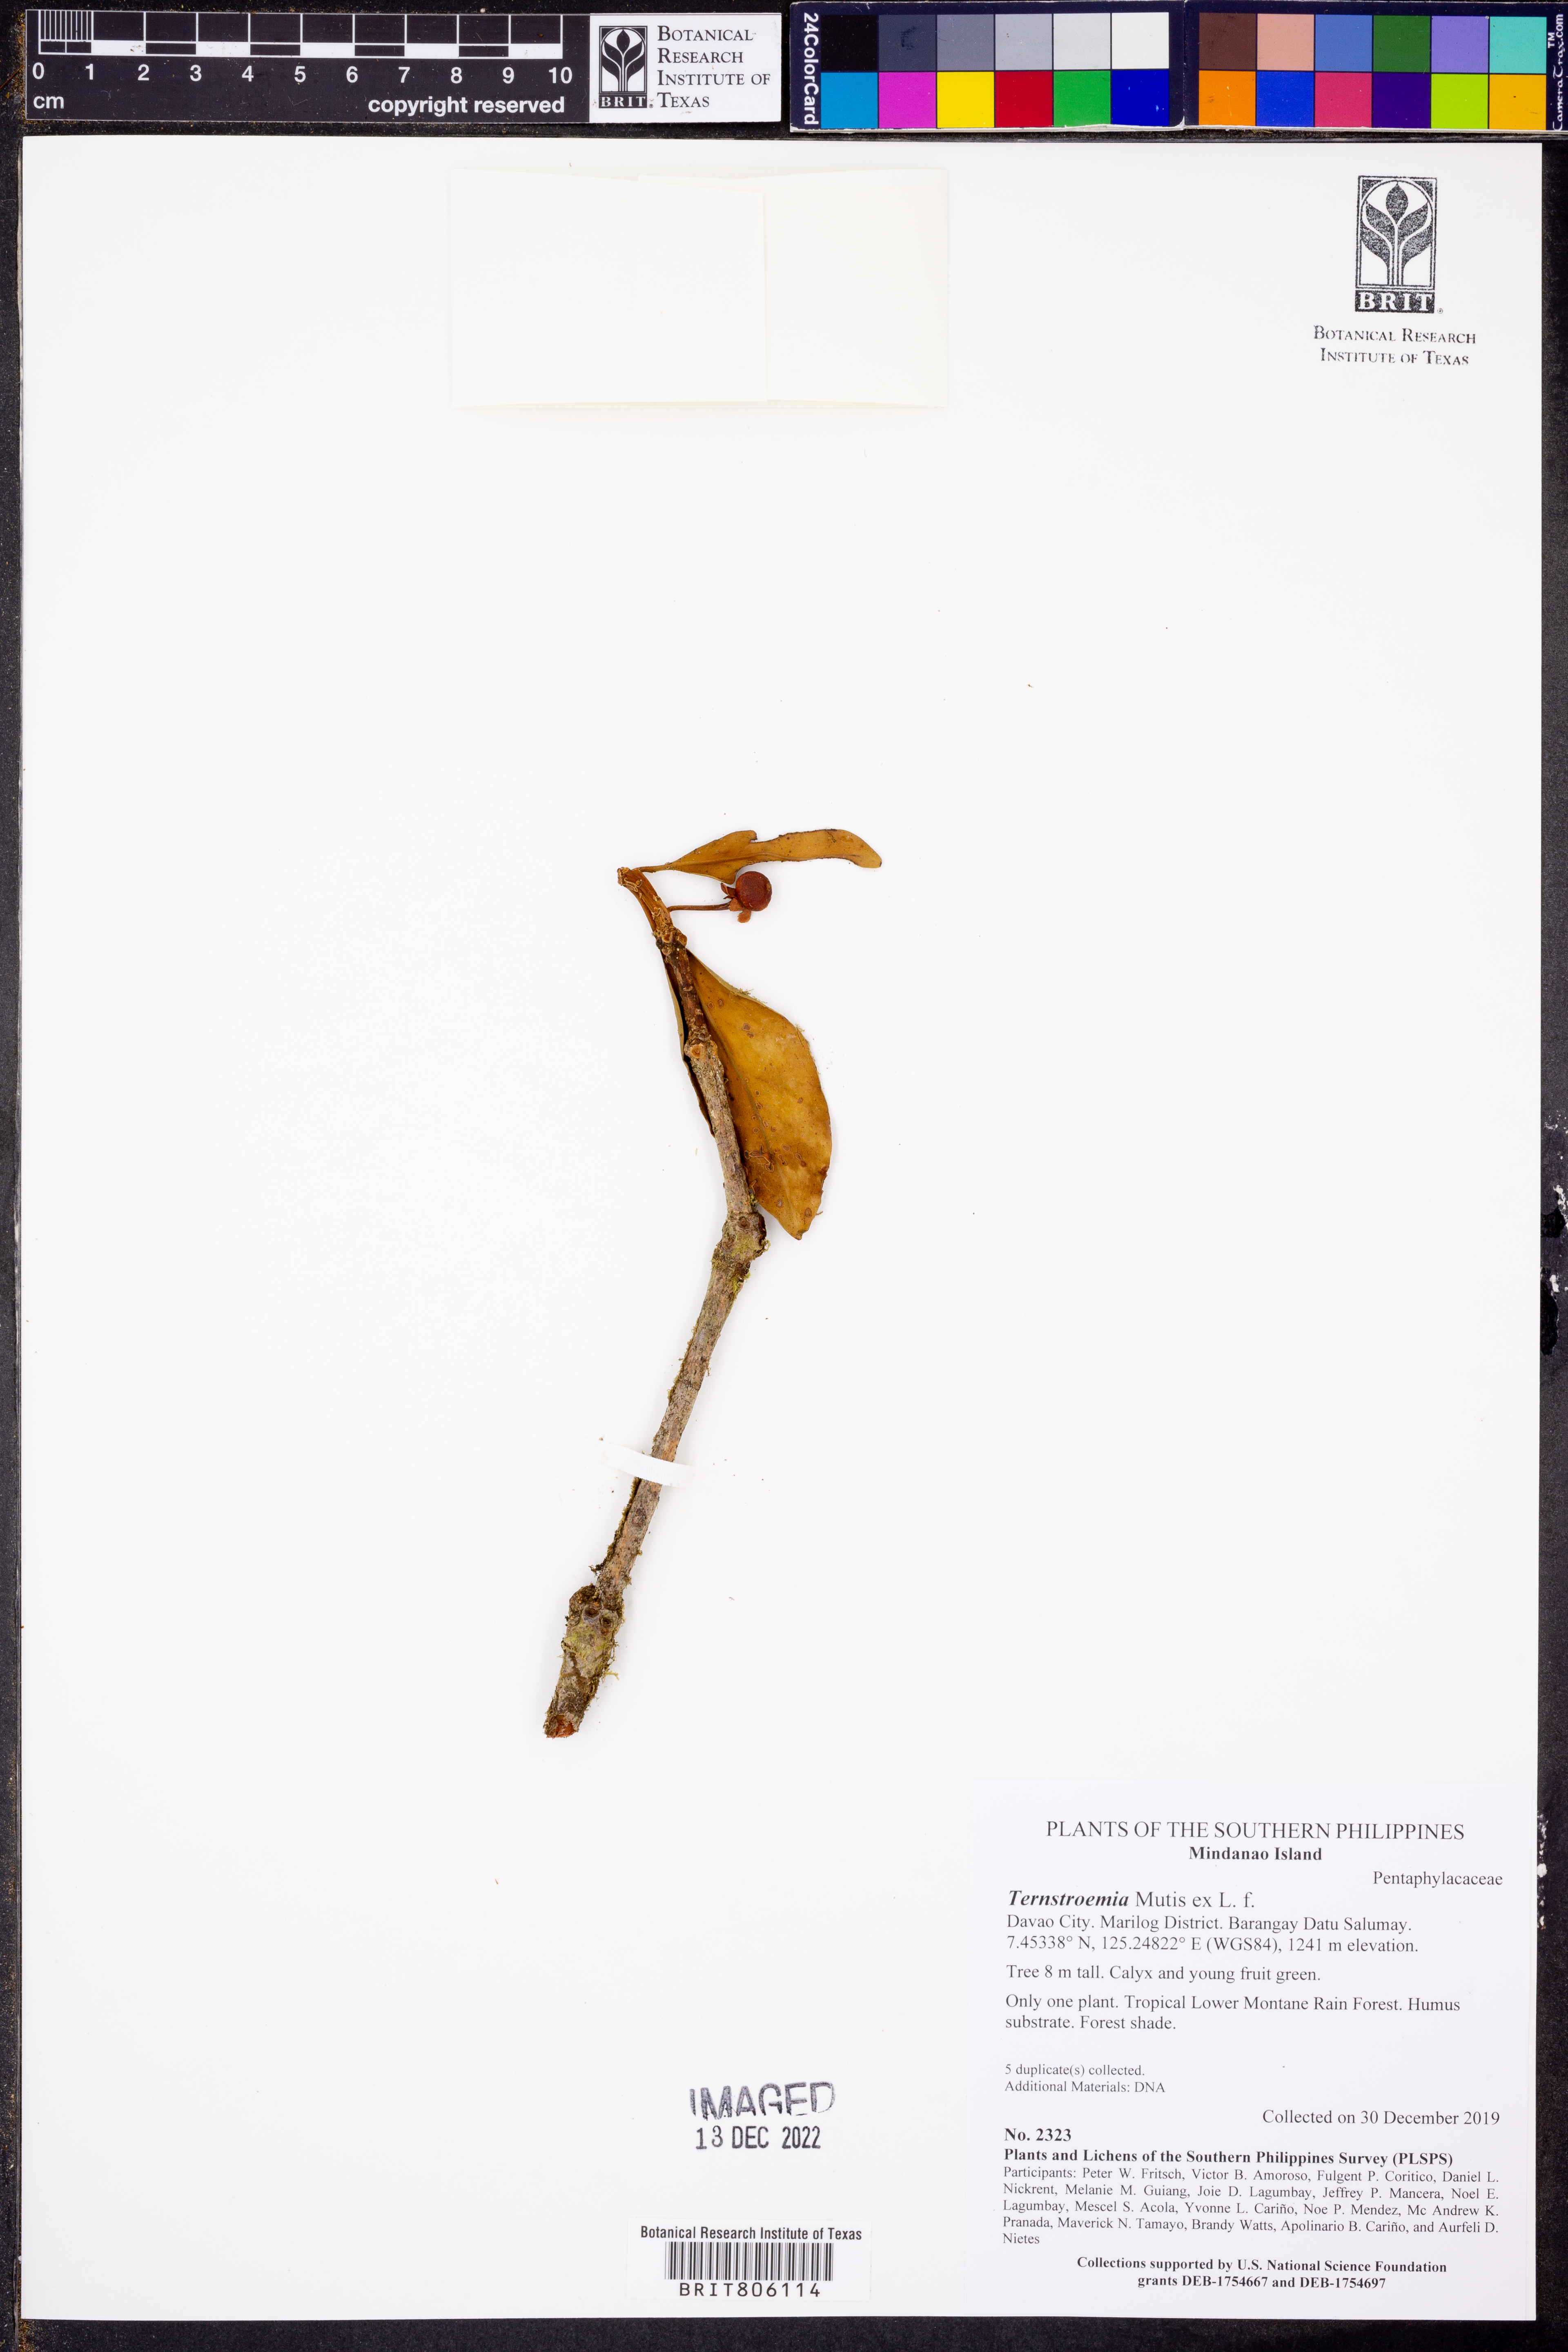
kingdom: Plantae
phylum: Tracheophyta
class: Magnoliopsida
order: Ericales
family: Pentaphylacaceae
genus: Ternstroemia
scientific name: Ternstroemia
